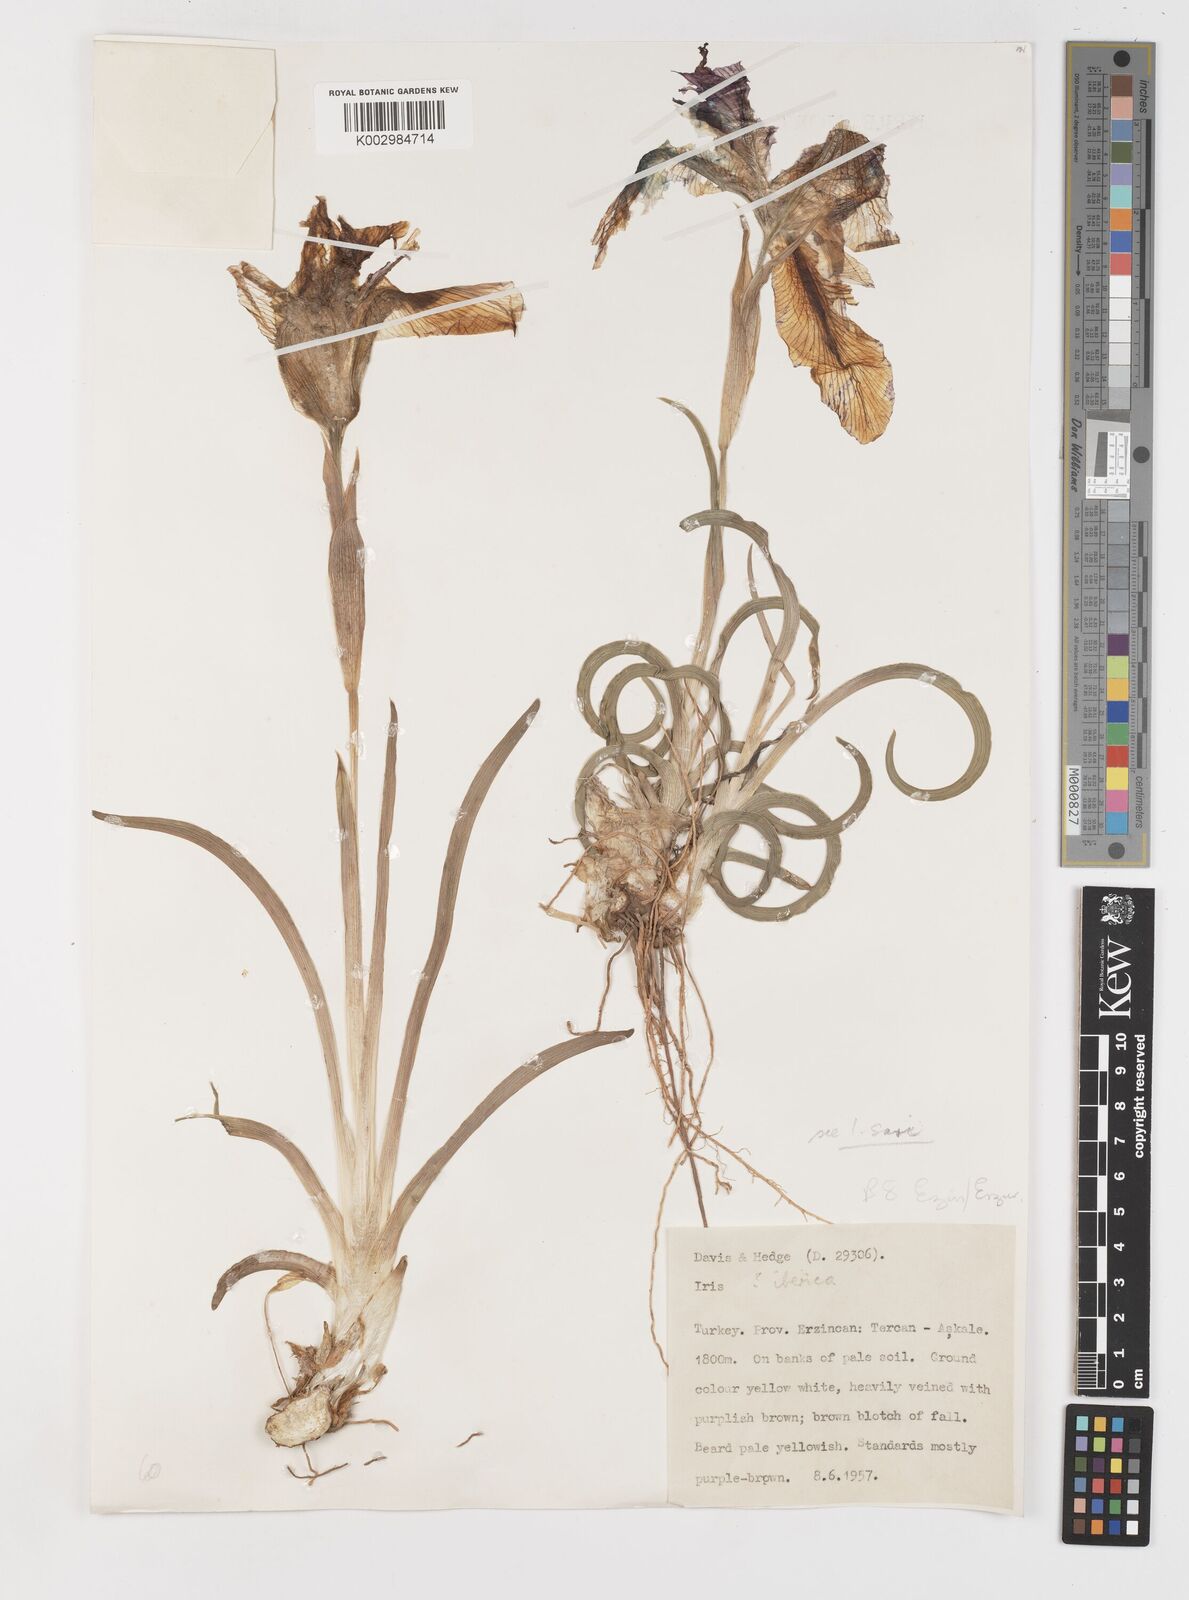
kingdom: Plantae
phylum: Tracheophyta
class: Liliopsida
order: Asparagales
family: Iridaceae
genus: Iris
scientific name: Iris sari
